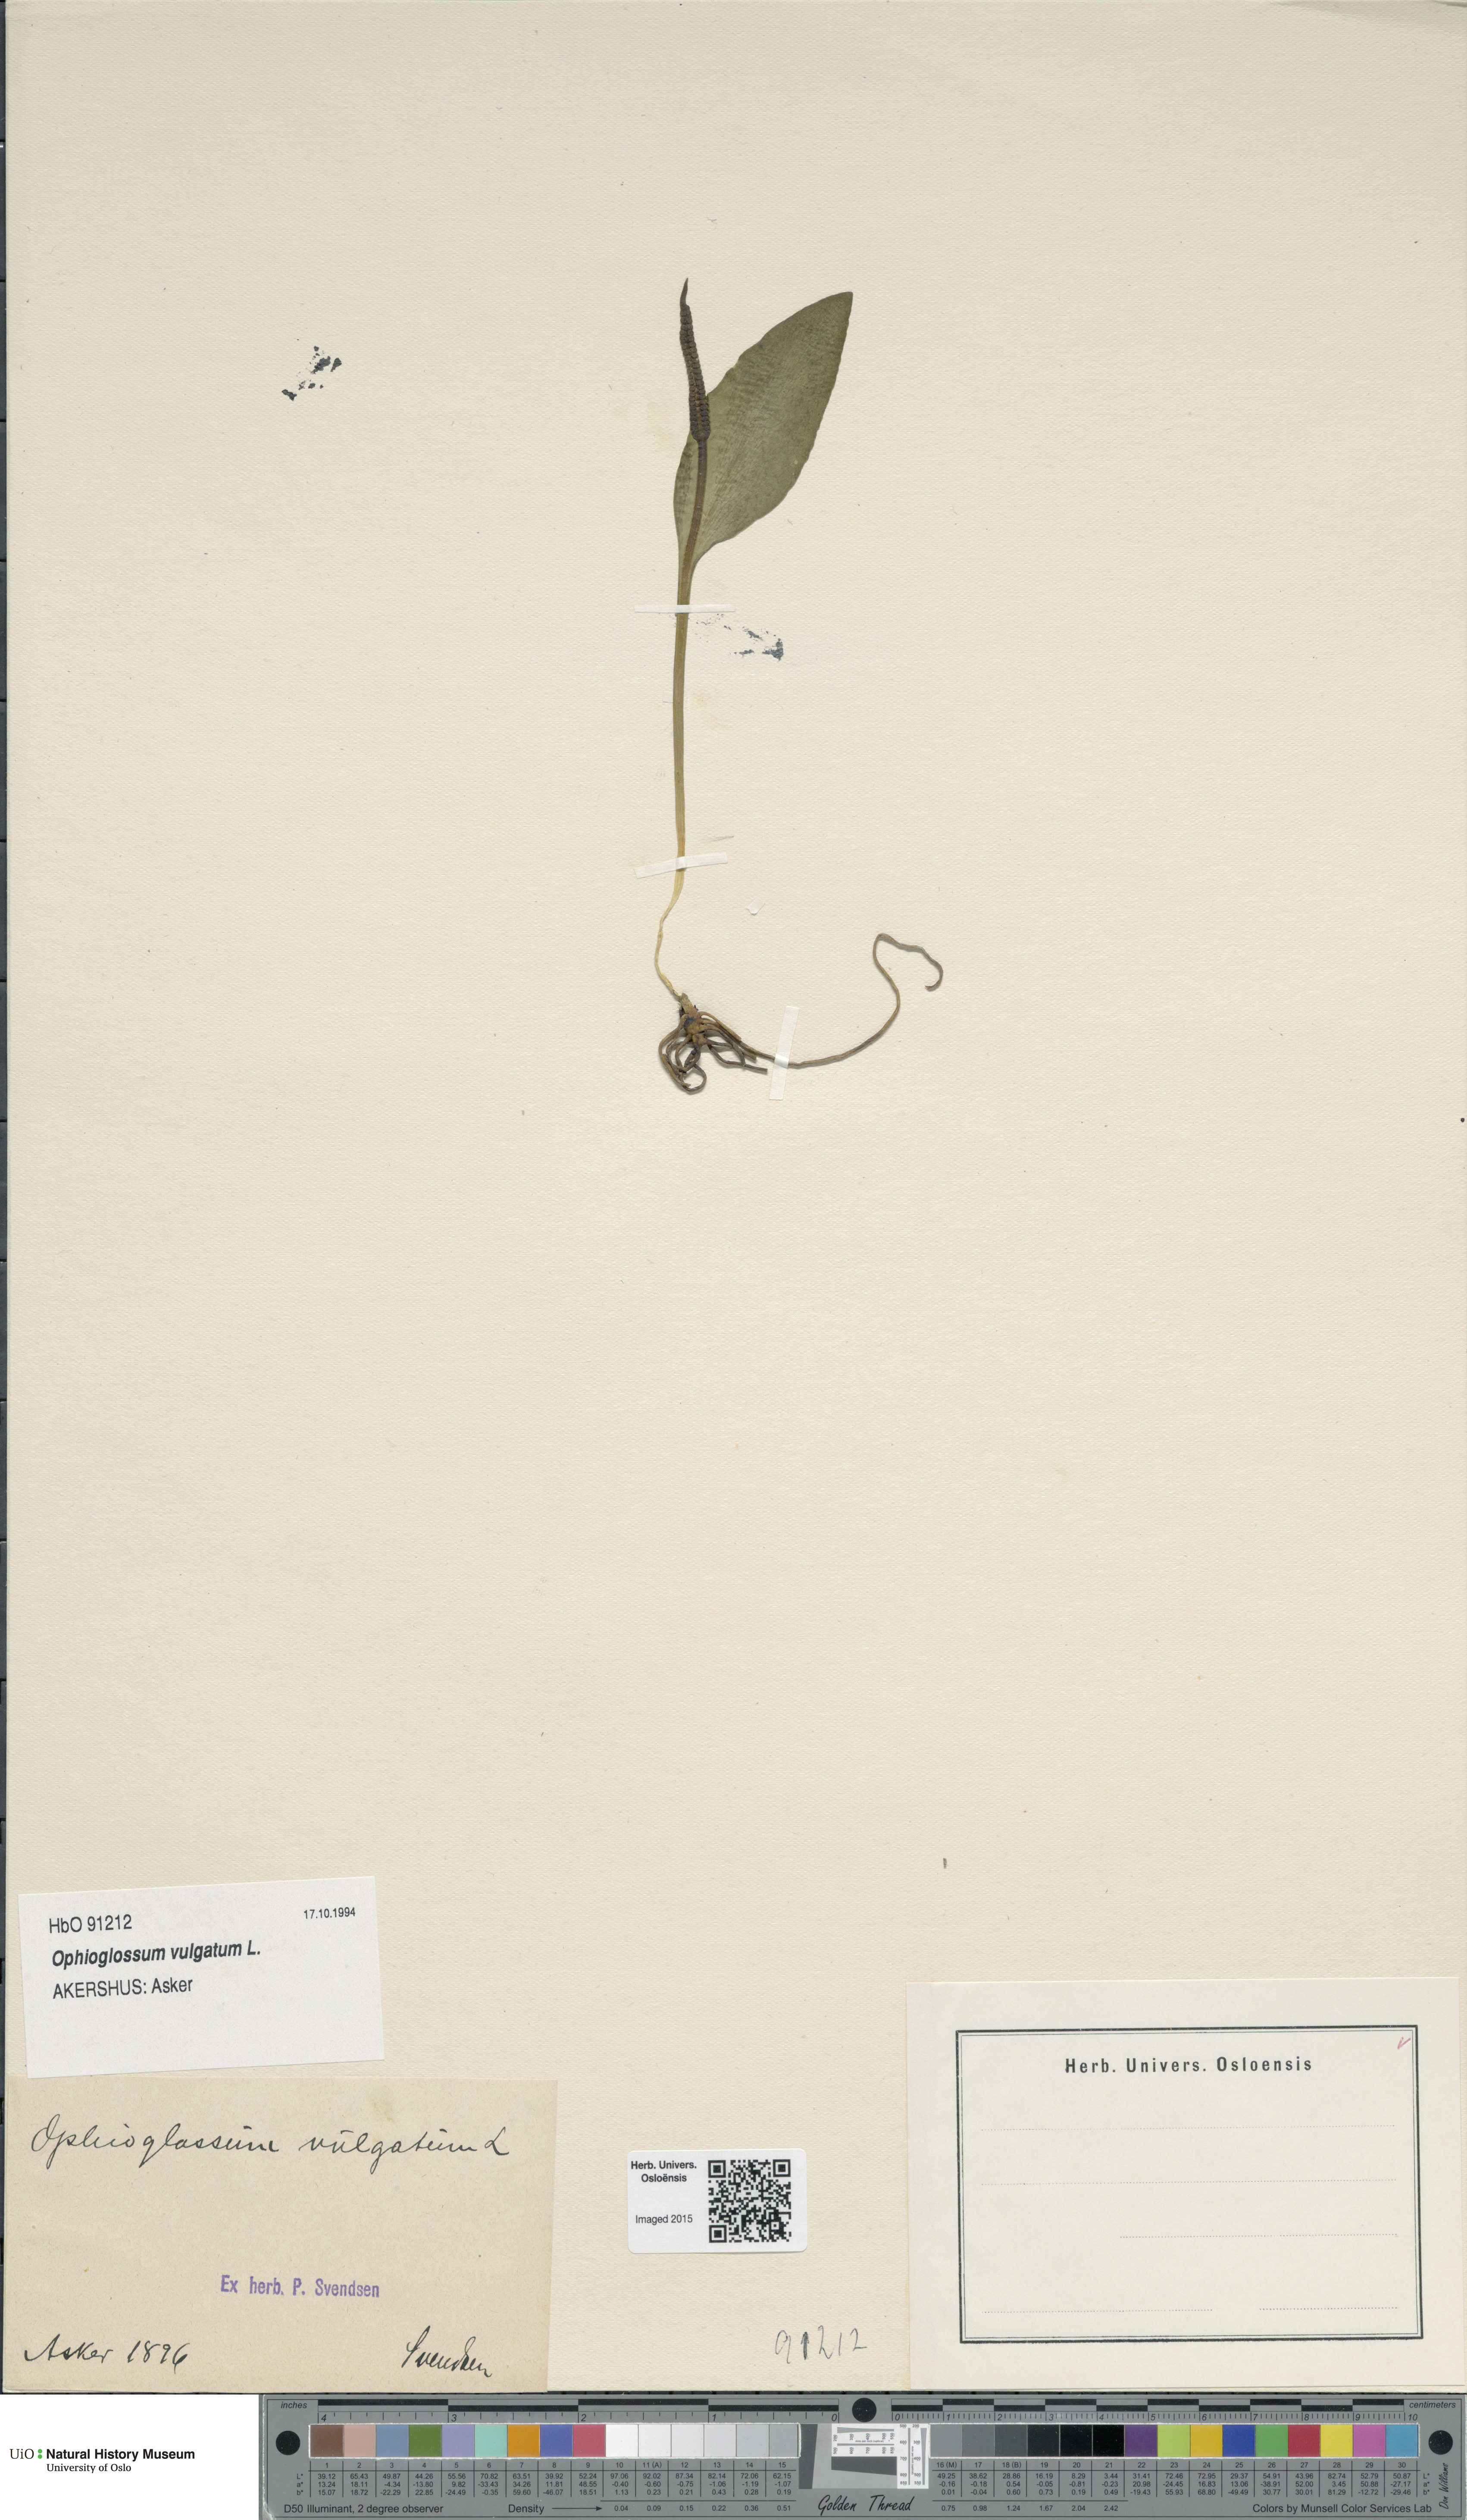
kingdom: Plantae
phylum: Tracheophyta
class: Polypodiopsida
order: Ophioglossales
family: Ophioglossaceae
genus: Ophioglossum
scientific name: Ophioglossum vulgatum
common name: Adder's-tongue
